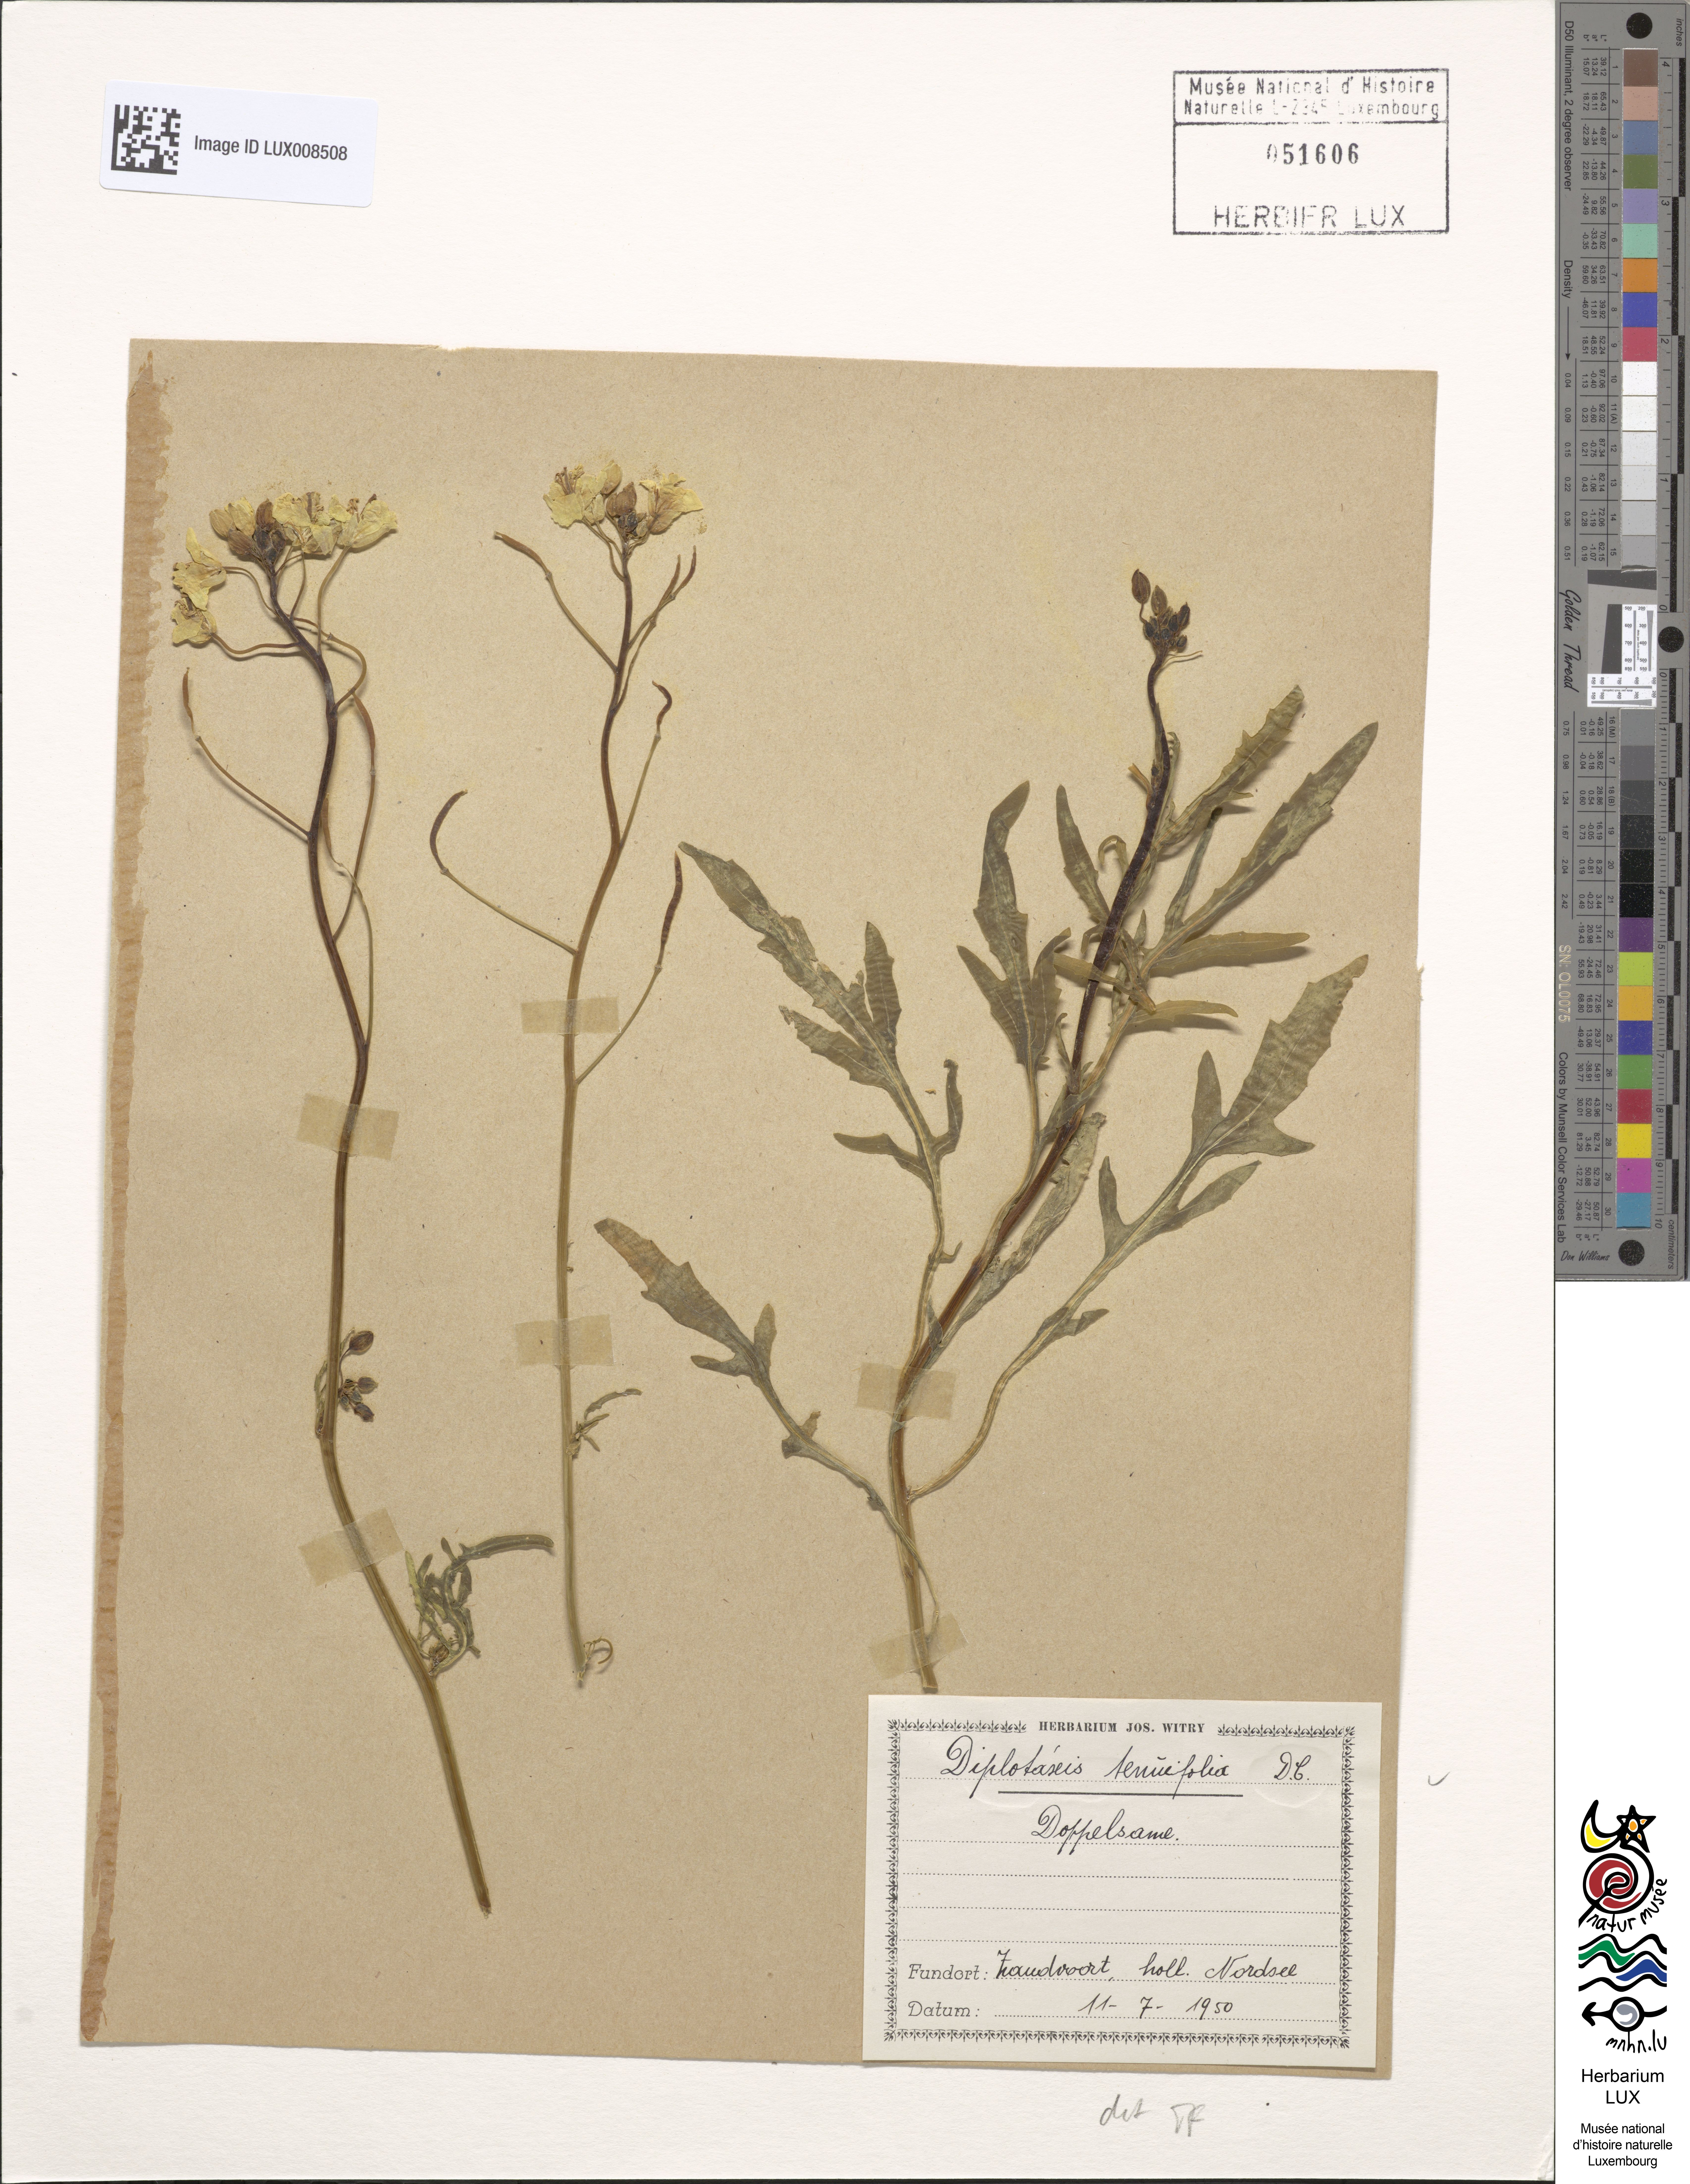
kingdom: Plantae
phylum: Tracheophyta
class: Magnoliopsida
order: Brassicales
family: Brassicaceae
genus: Diplotaxis
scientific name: Diplotaxis tenuifolia
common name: Perennial wall-rocket
